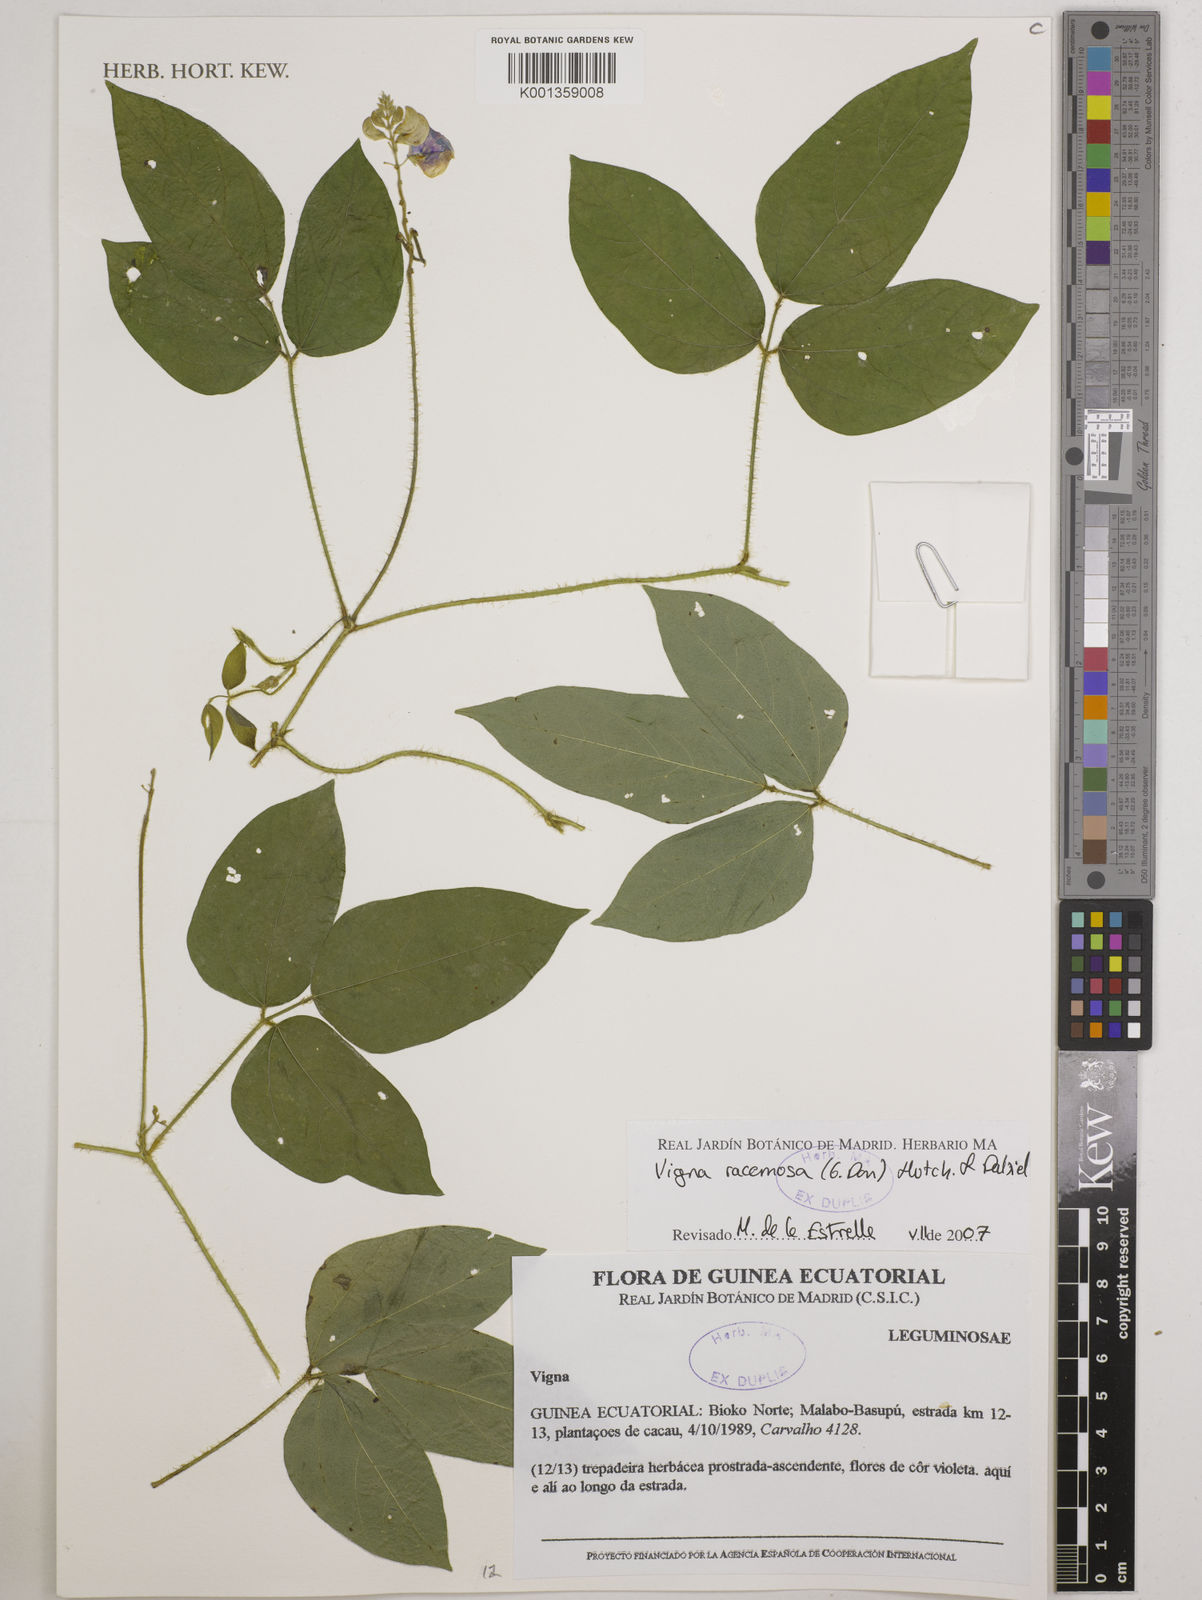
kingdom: Plantae
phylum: Tracheophyta
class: Magnoliopsida
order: Fabales
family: Fabaceae
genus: Vigna
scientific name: Vigna racemosa
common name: Beans not eaten
